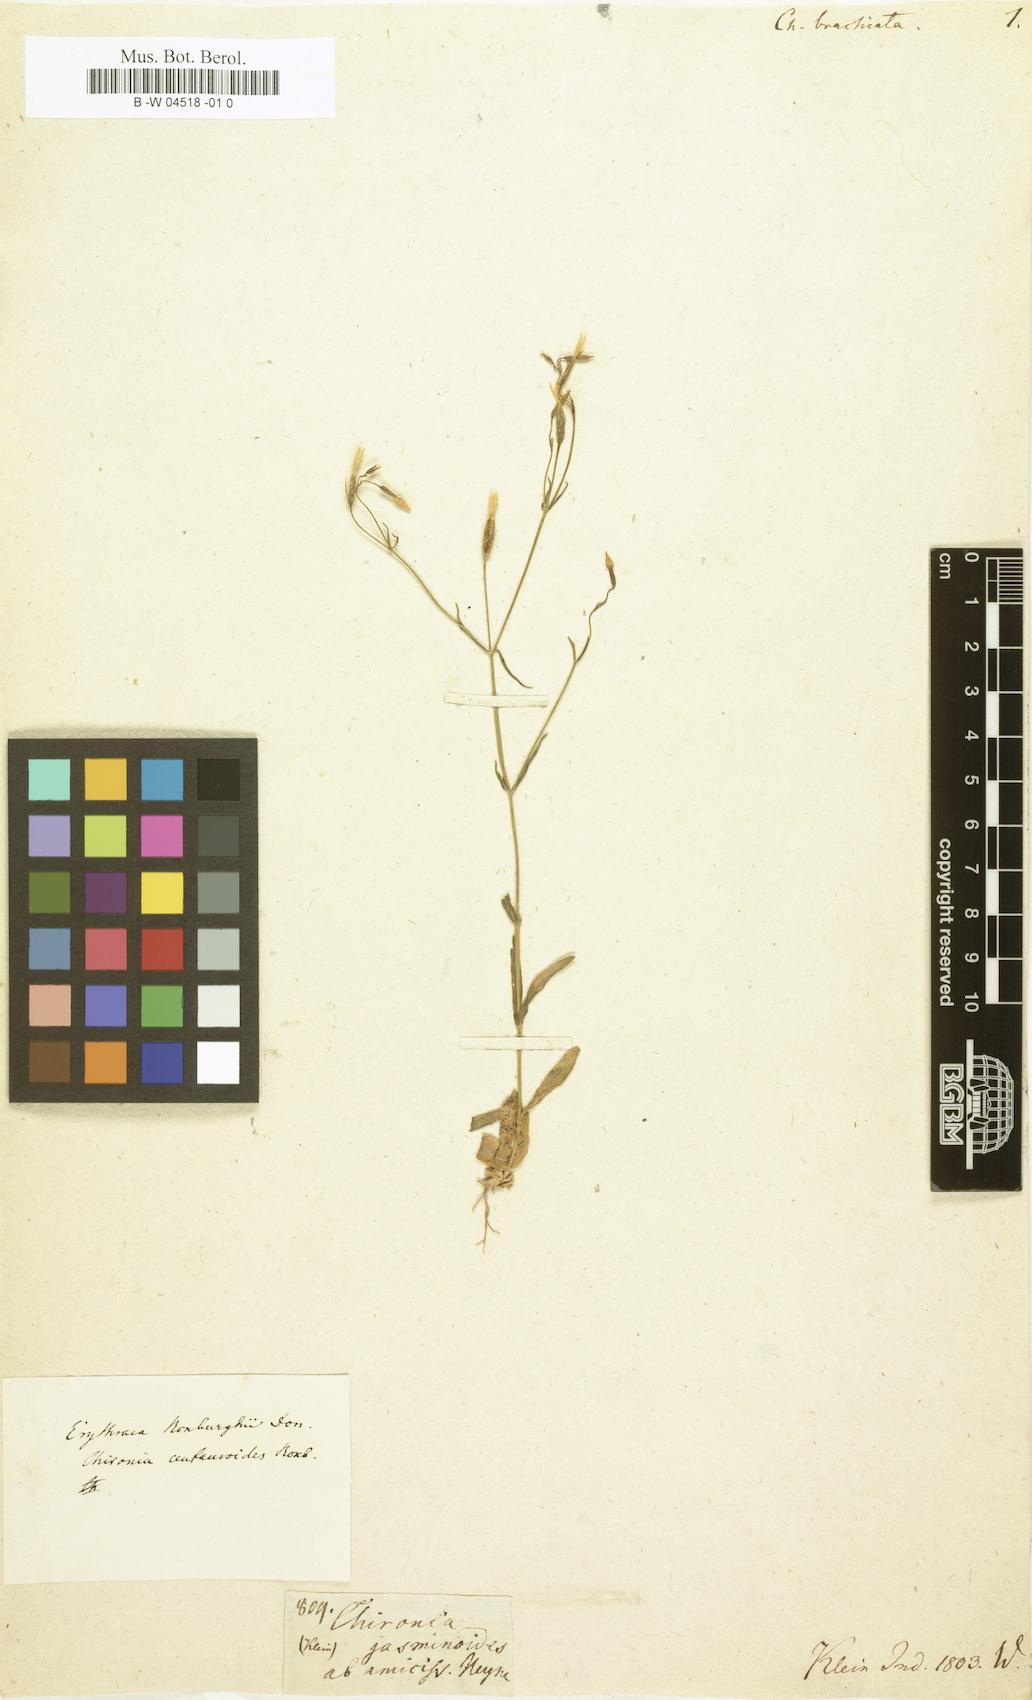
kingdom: Plantae
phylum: Tracheophyta
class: Magnoliopsida
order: Gentianales
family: Gentianaceae
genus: Centaurium
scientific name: Centaurium centaurioides
